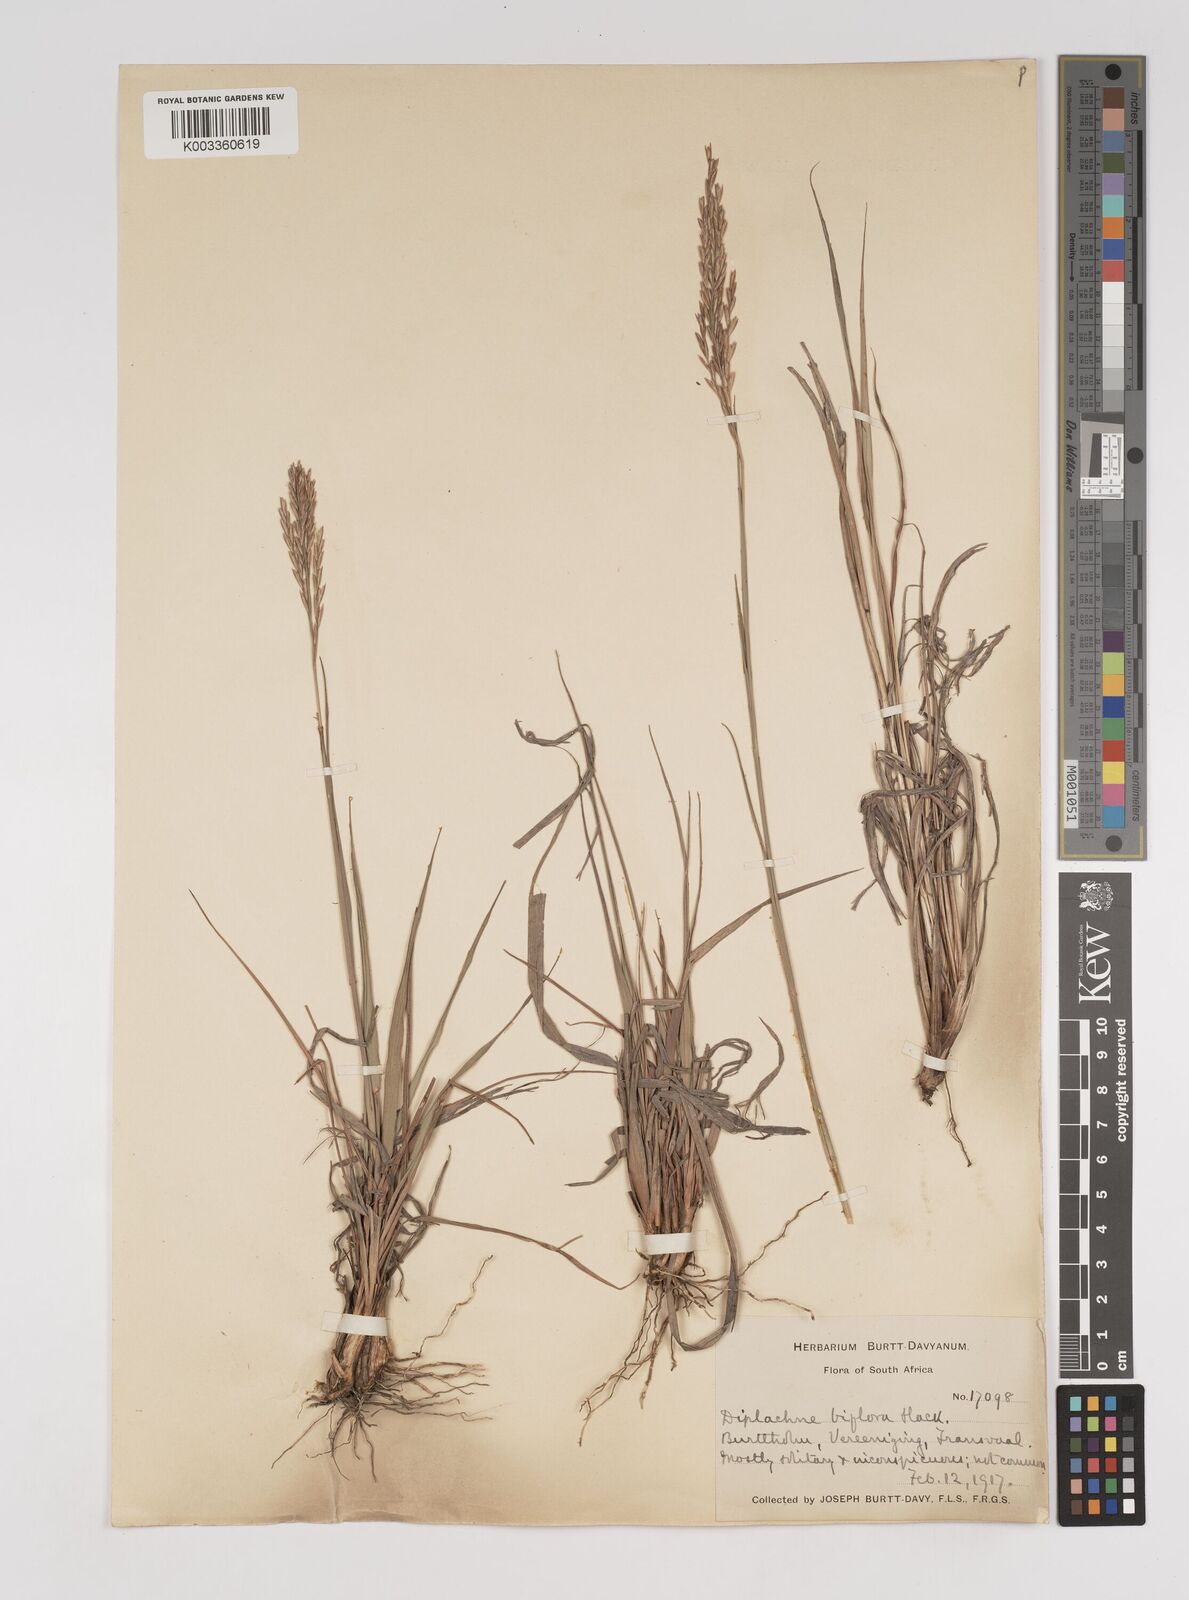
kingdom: Plantae
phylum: Tracheophyta
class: Liliopsida
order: Poales
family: Poaceae
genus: Bewsia
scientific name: Bewsia biflora
